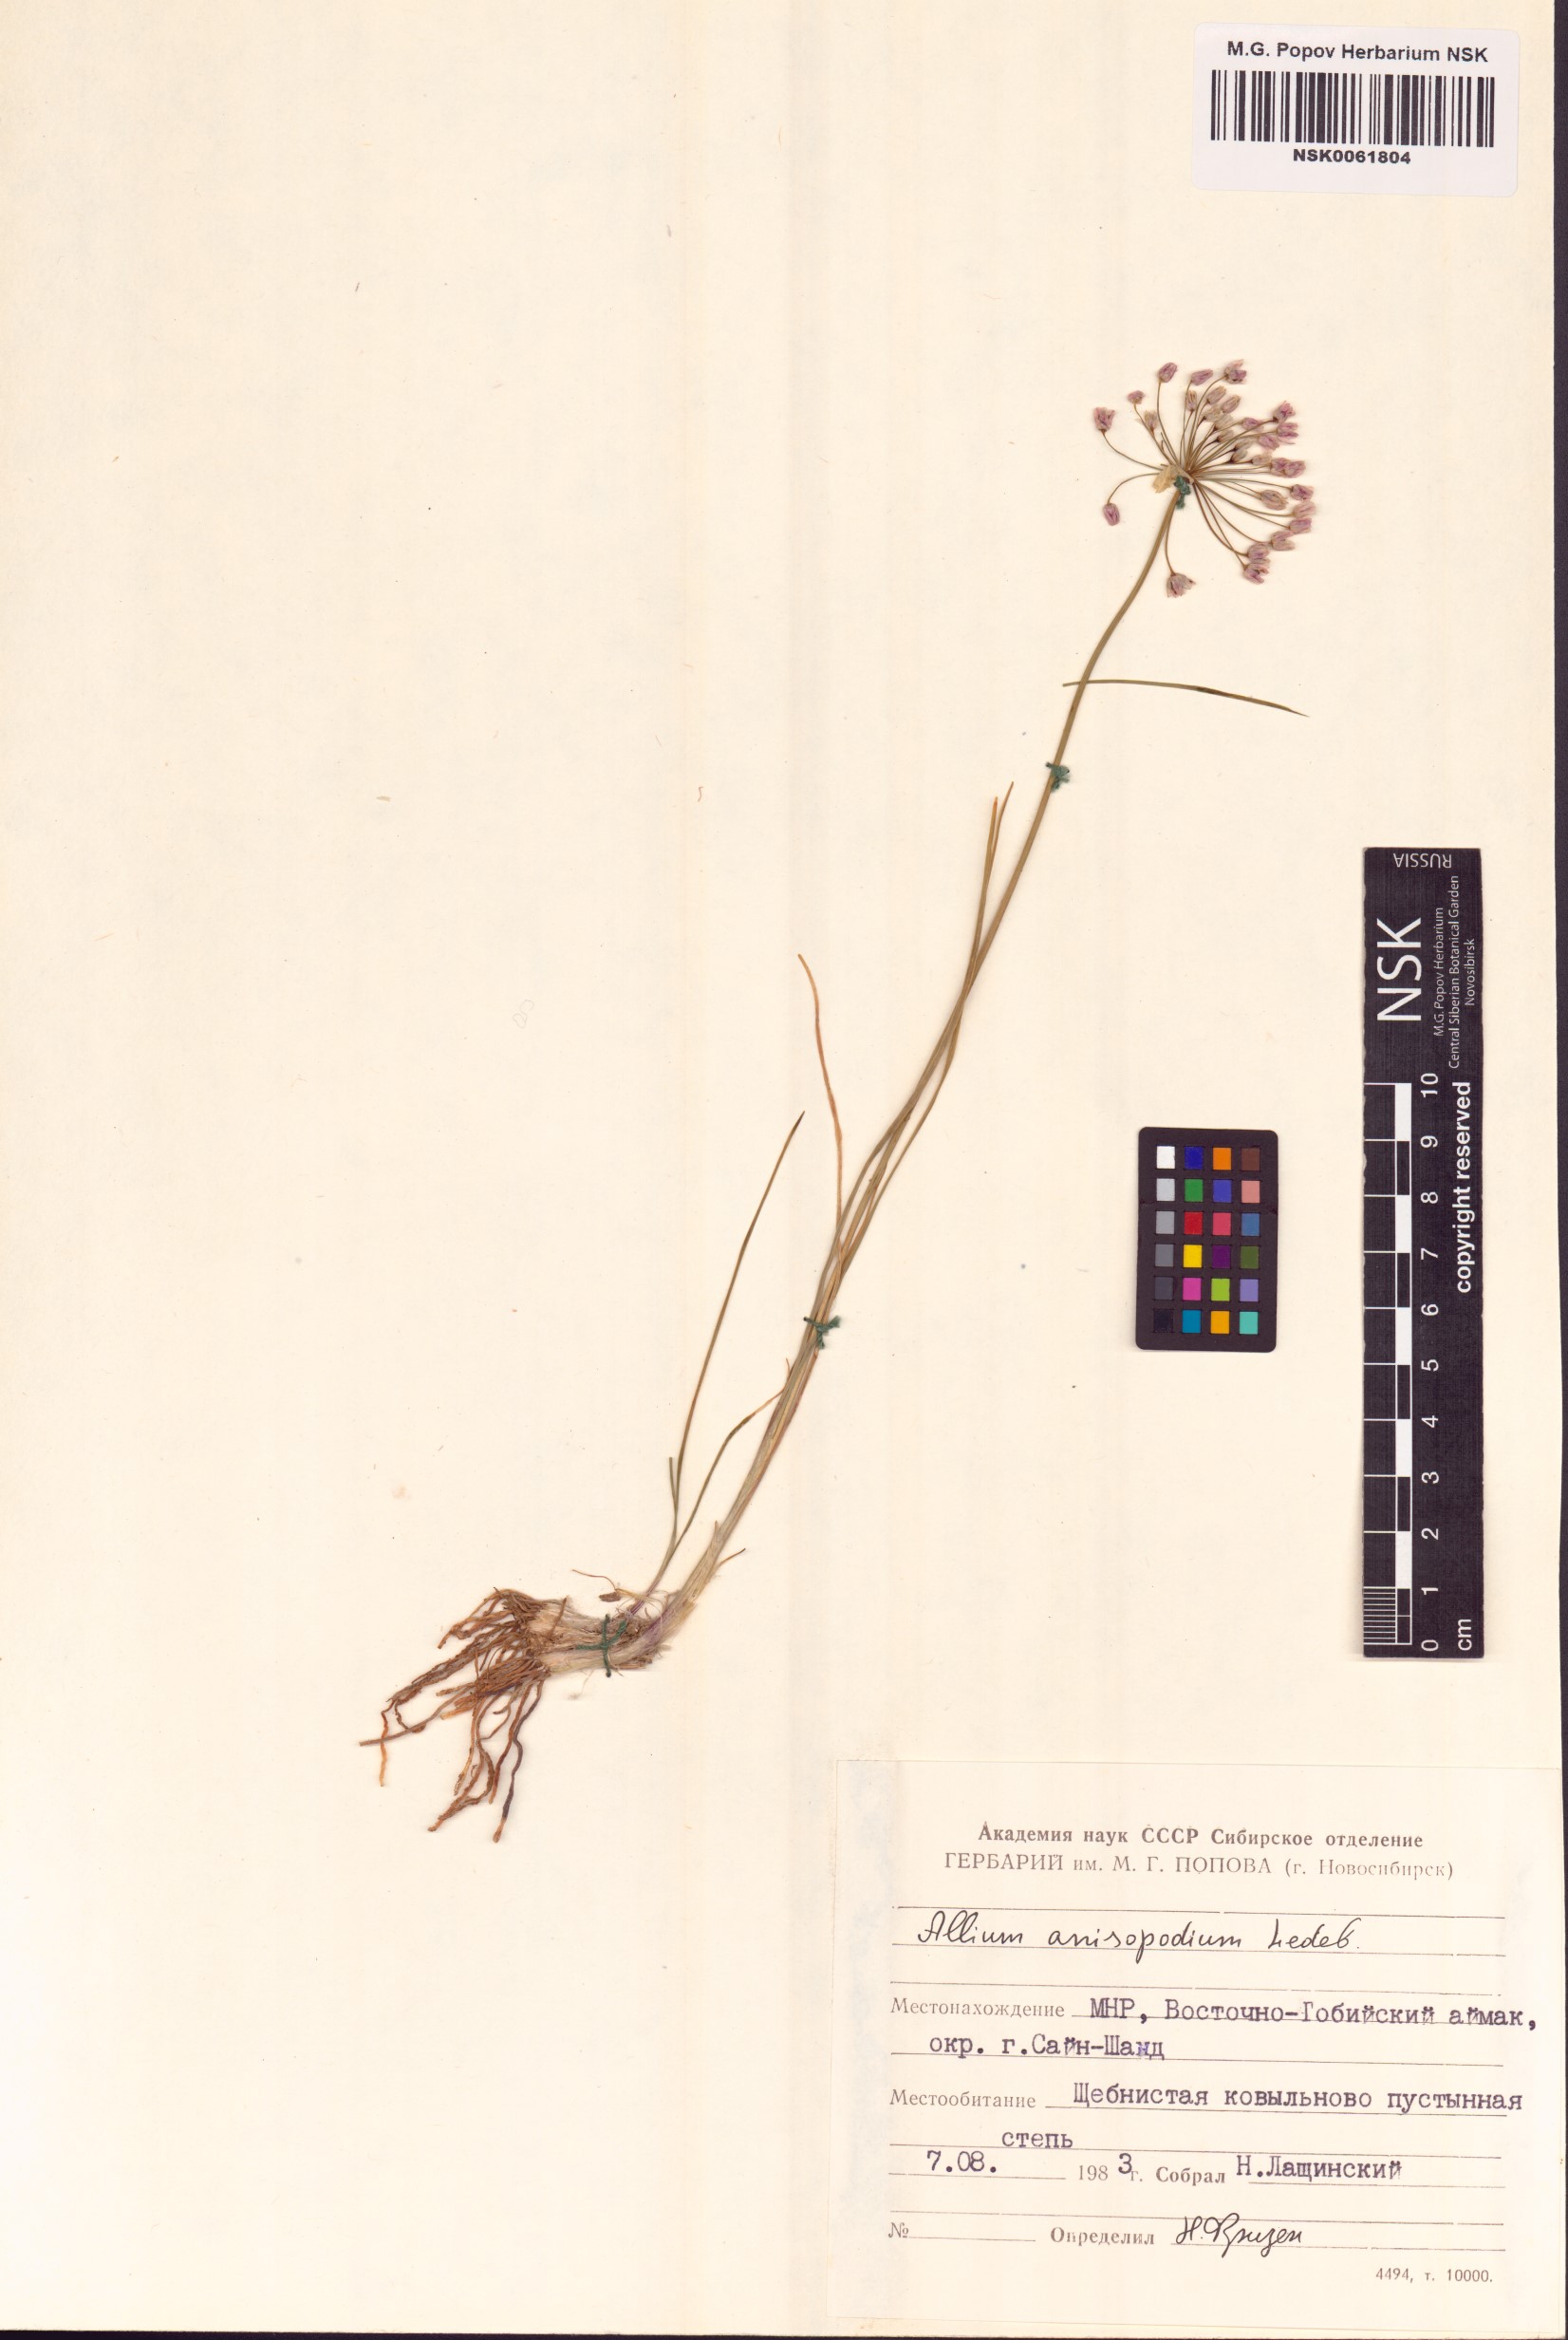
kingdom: Plantae
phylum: Tracheophyta
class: Liliopsida
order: Asparagales
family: Amaryllidaceae
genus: Allium
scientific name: Allium anisopodium
